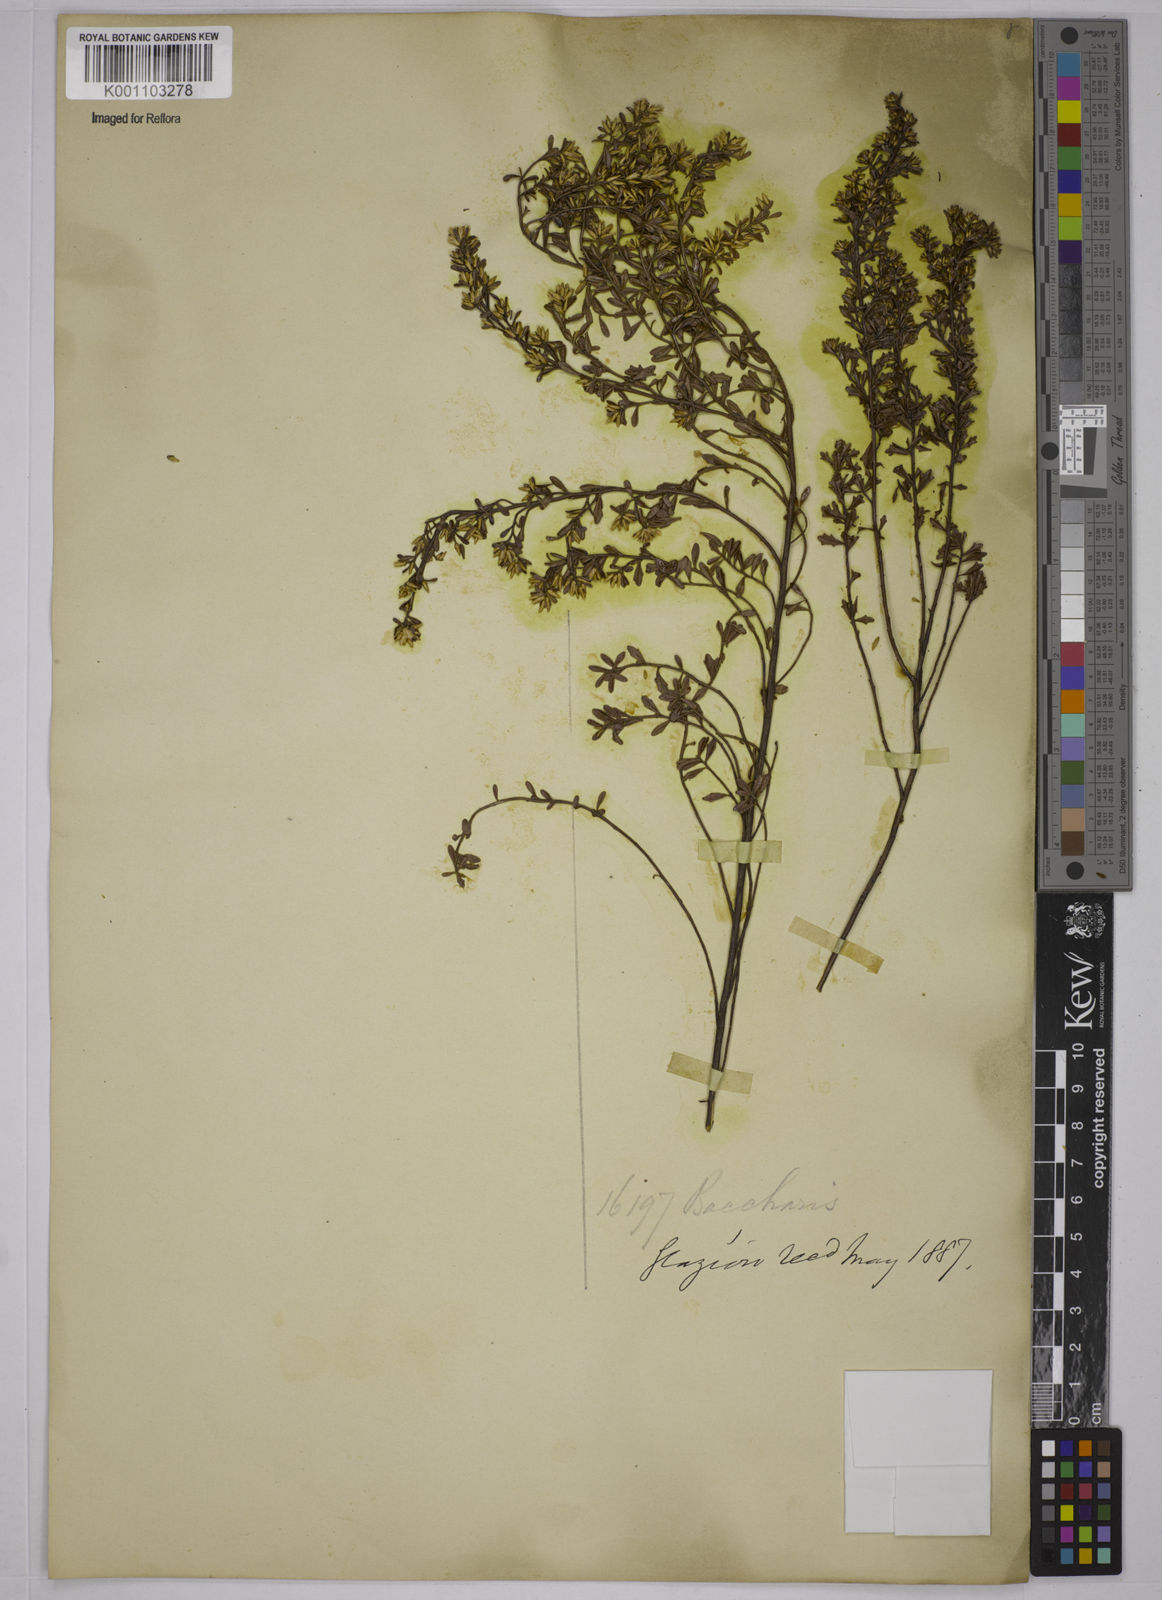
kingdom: Plantae
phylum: Tracheophyta
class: Magnoliopsida
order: Asterales
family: Asteraceae
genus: Baccharis
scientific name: Baccharis
